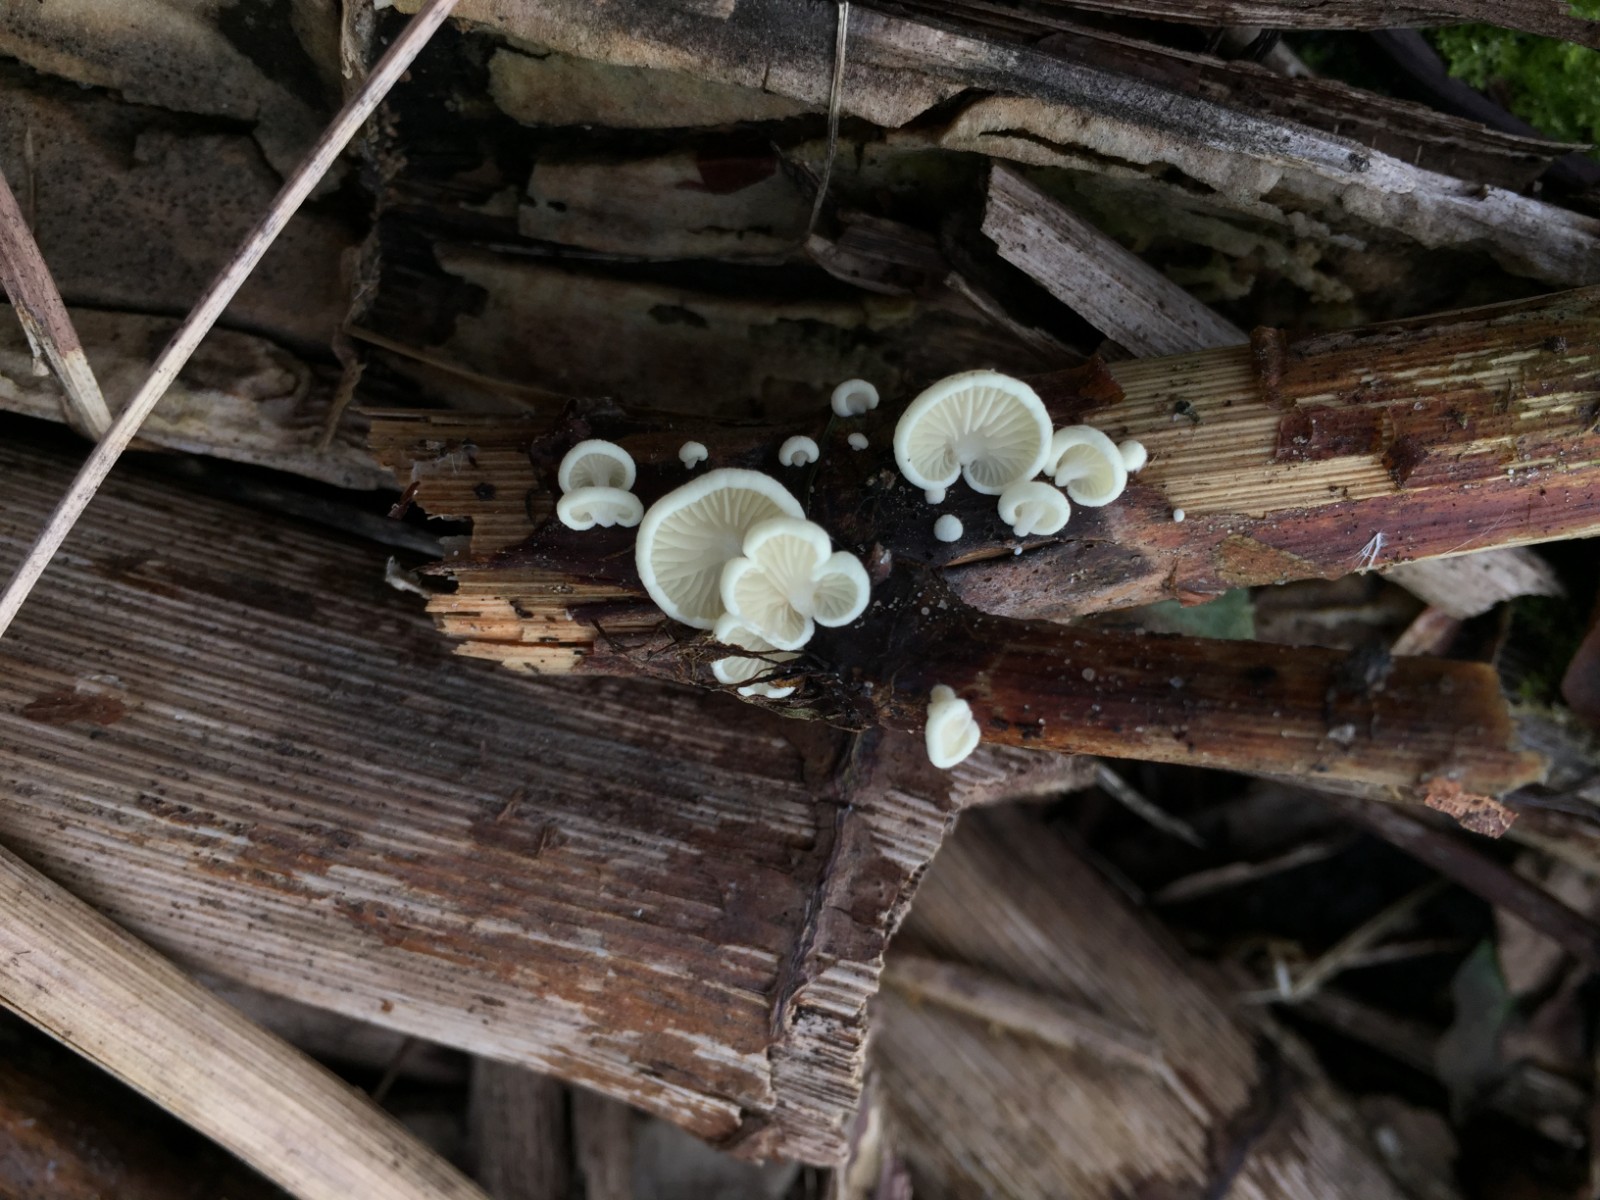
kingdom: Fungi
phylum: Basidiomycota
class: Agaricomycetes
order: Agaricales
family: Crepidotaceae
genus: Crepidotus
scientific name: Crepidotus luteolus
